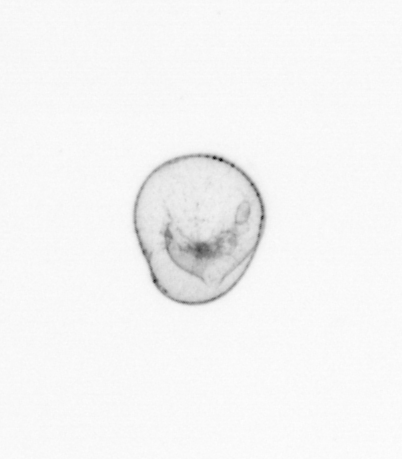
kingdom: Chromista
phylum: Myzozoa
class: Dinophyceae
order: Noctilucales
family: Noctilucaceae
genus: Noctiluca
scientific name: Noctiluca scintillans
